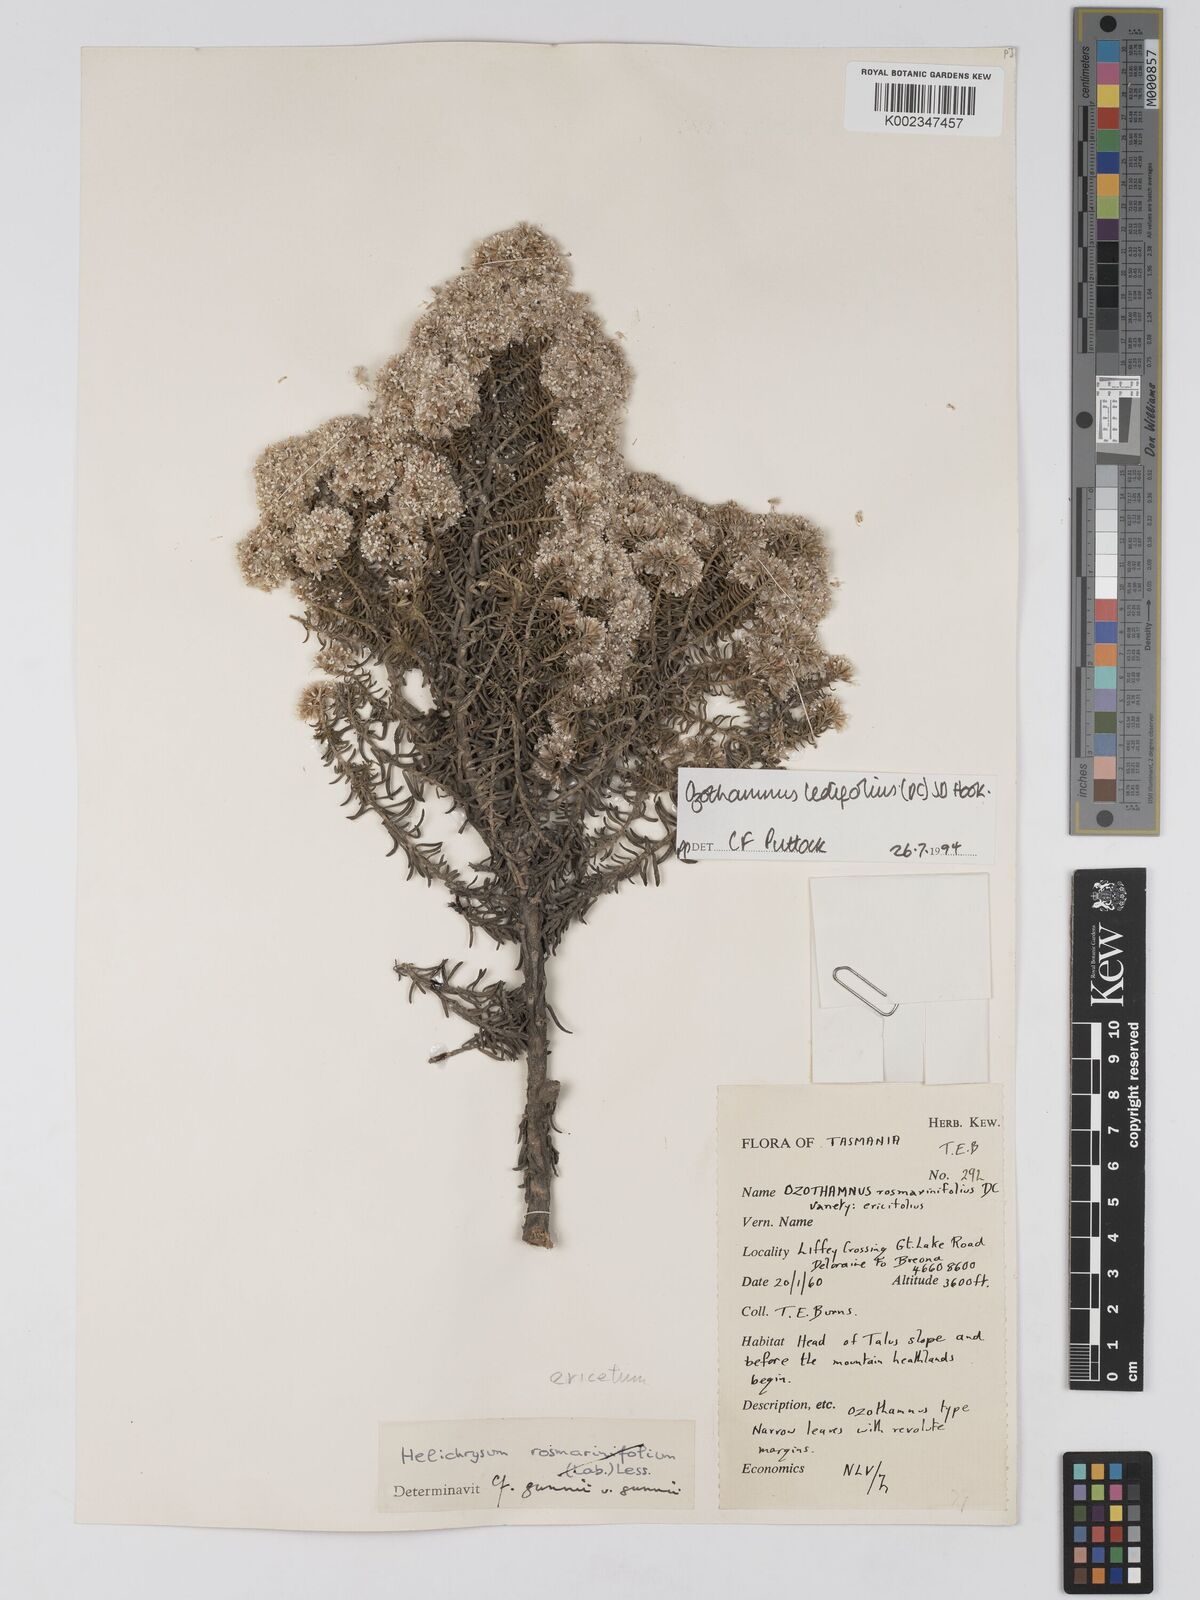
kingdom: Plantae
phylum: Tracheophyta
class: Magnoliopsida
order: Asterales
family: Asteraceae
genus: Ozothamnus
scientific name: Ozothamnus ledifolius
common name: Kerosene-weed
